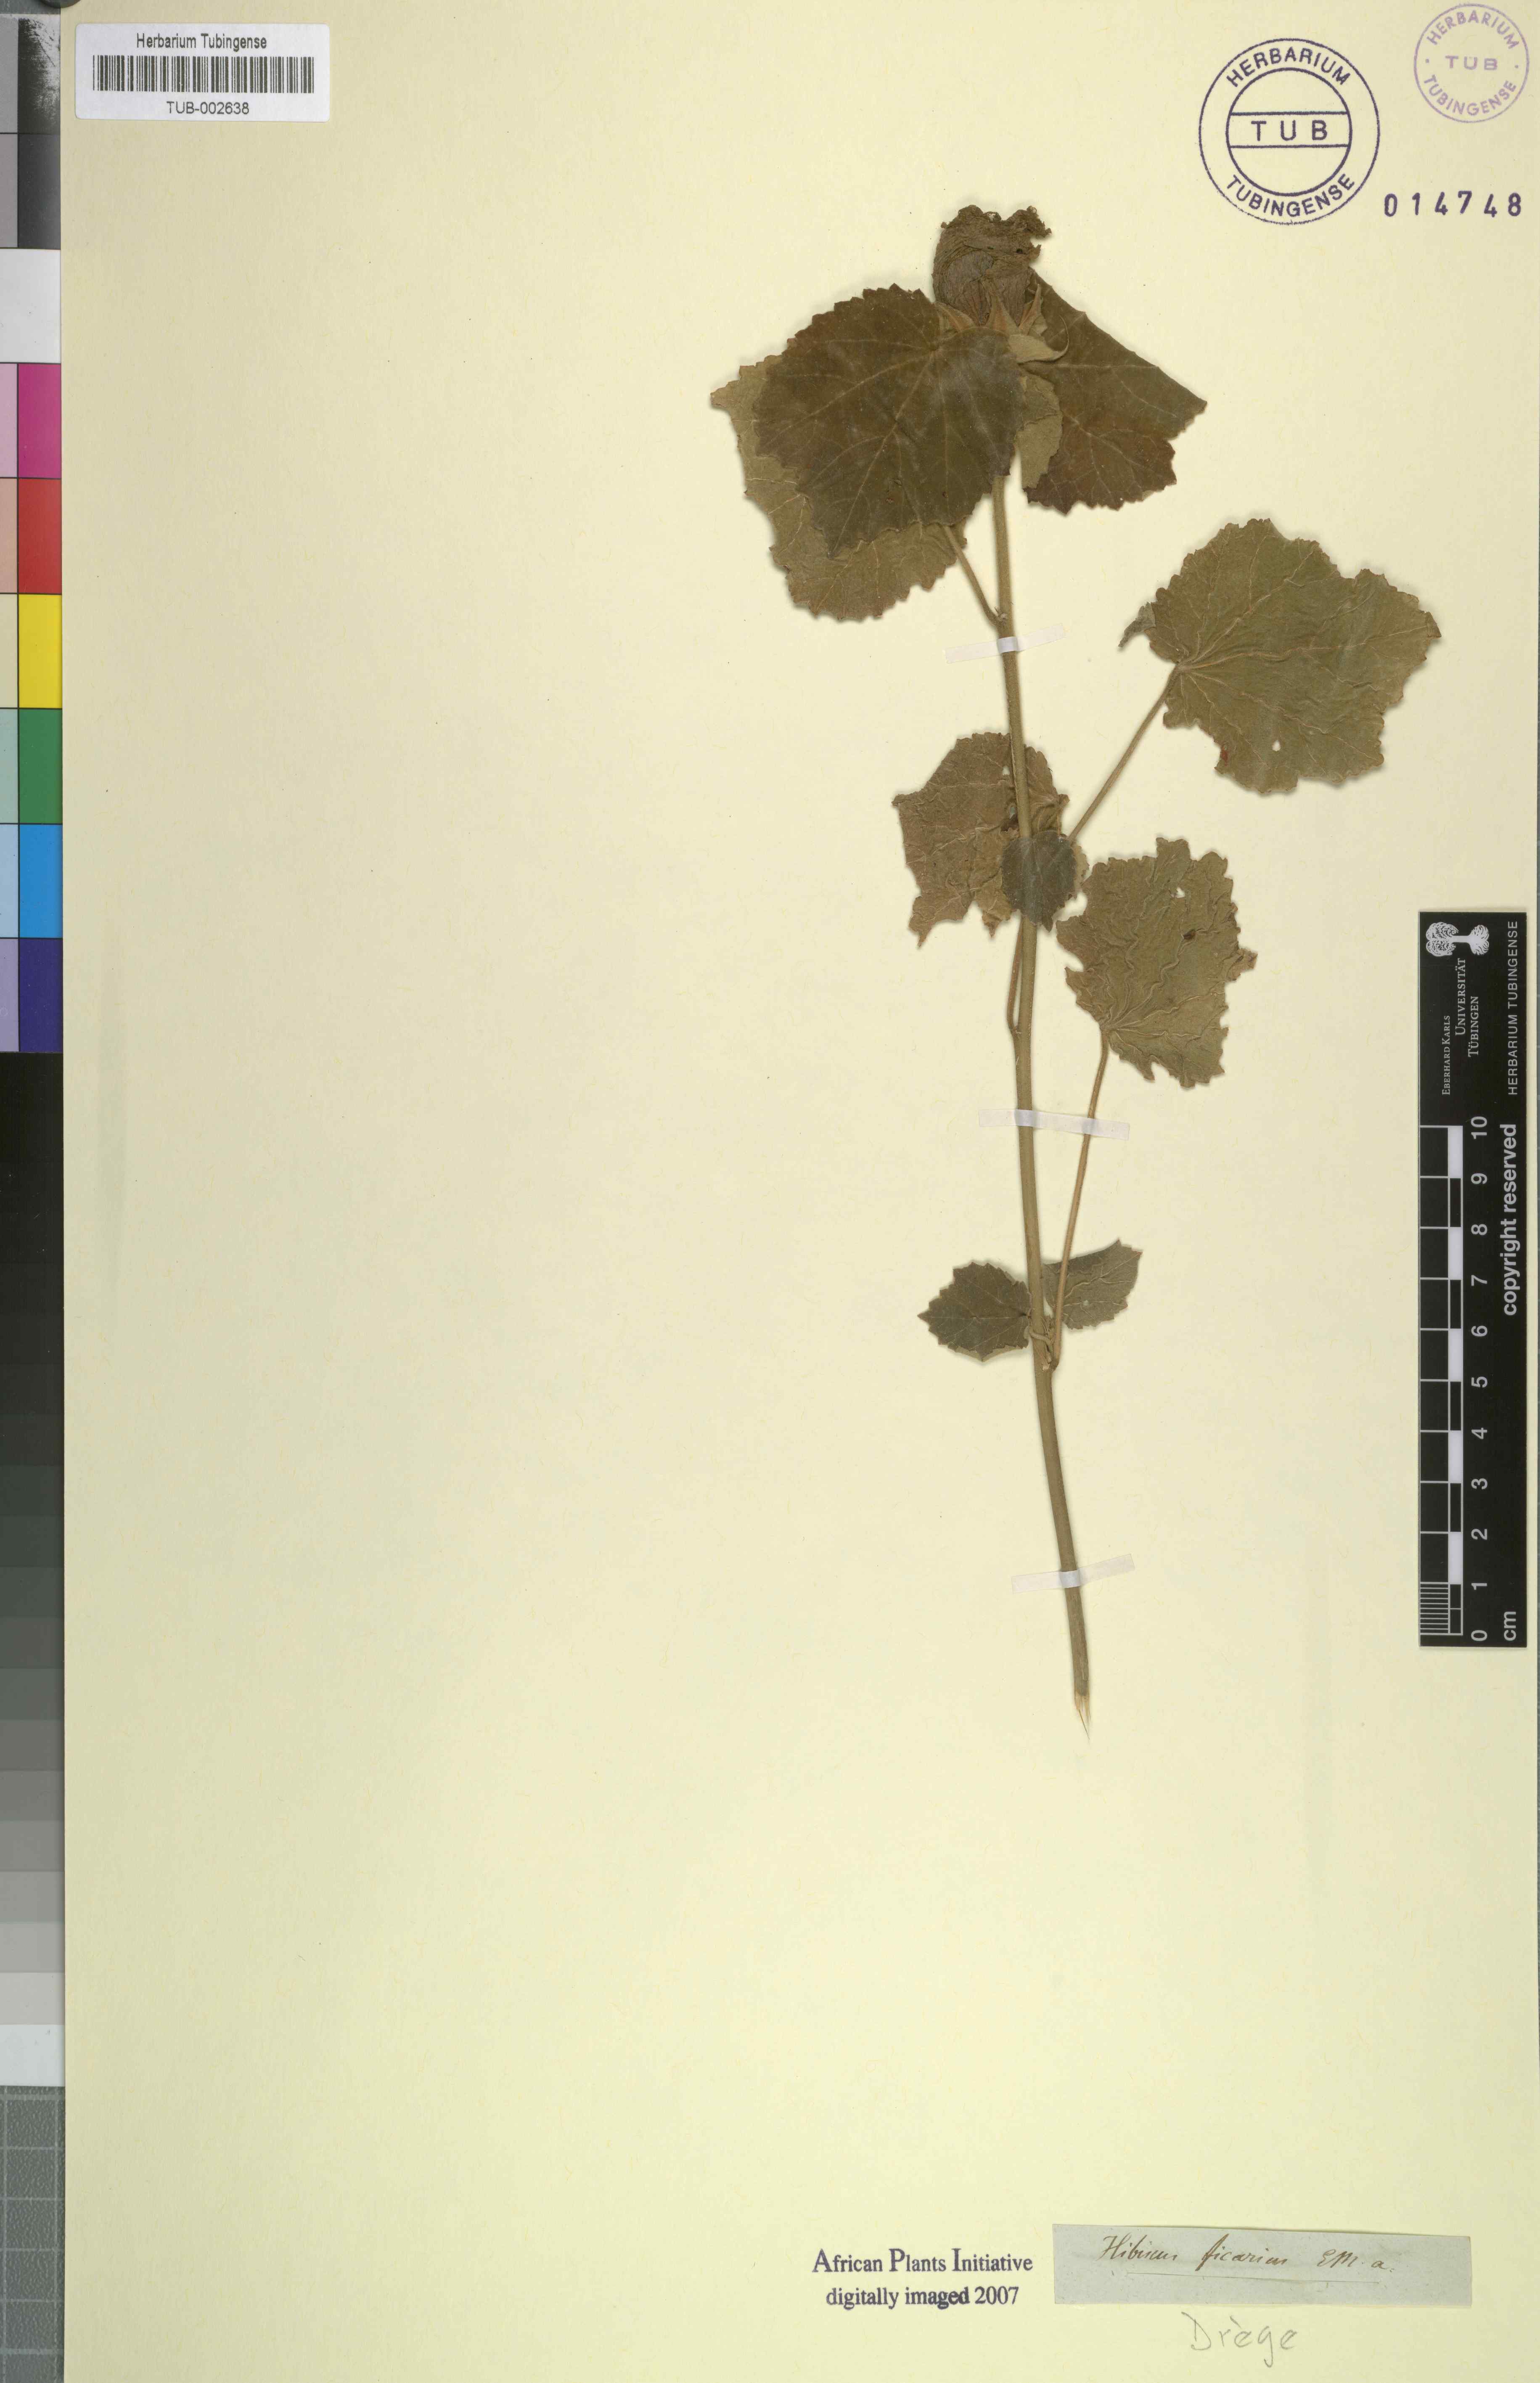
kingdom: Plantae
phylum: Tracheophyta
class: Magnoliopsida
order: Malvales
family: Malvaceae
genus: Hibiscus
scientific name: Hibiscus calyphyllus
